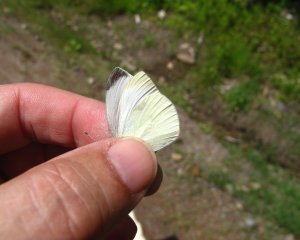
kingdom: Animalia
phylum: Arthropoda
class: Insecta
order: Lepidoptera
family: Pieridae
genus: Pieris
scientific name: Pieris rapae
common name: Cabbage White
